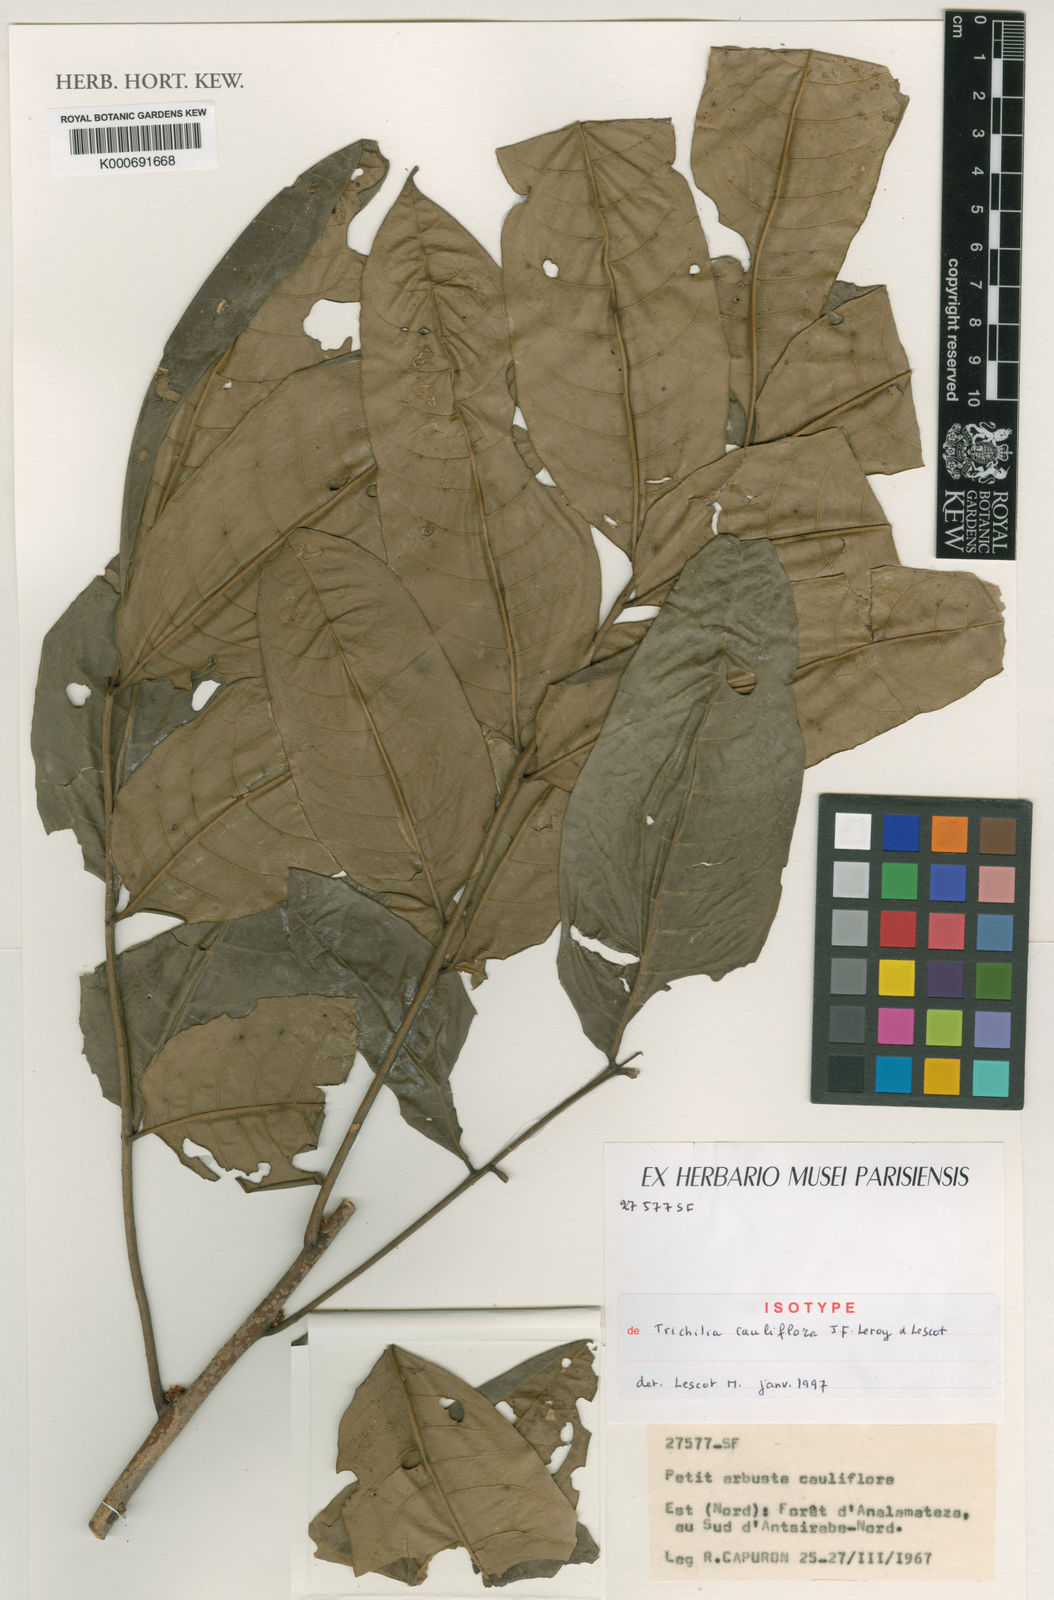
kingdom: Plantae
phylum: Tracheophyta
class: Magnoliopsida
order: Sapindales
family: Meliaceae
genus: Trichilia
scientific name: Trichilia cauliflora
